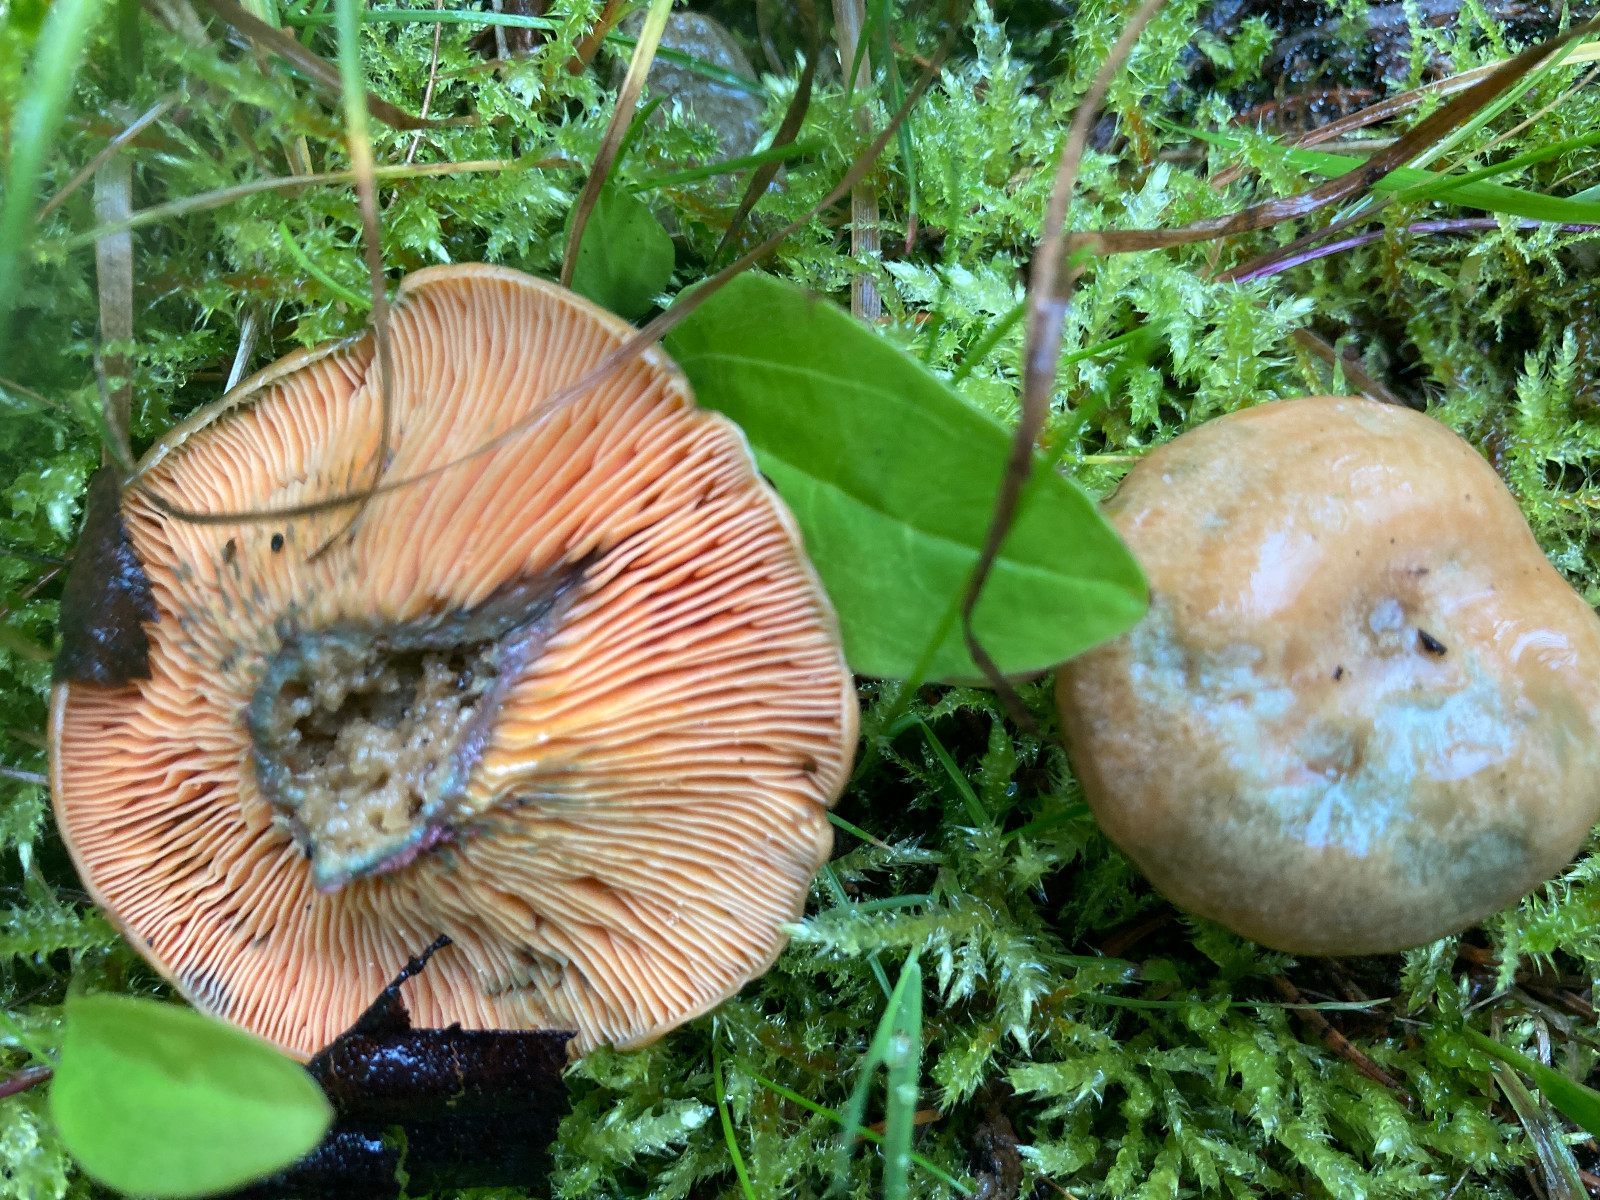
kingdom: Fungi
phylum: Basidiomycota
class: Agaricomycetes
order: Russulales
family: Russulaceae
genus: Lactarius
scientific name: Lactarius deterrimus
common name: gran-mælkehat
